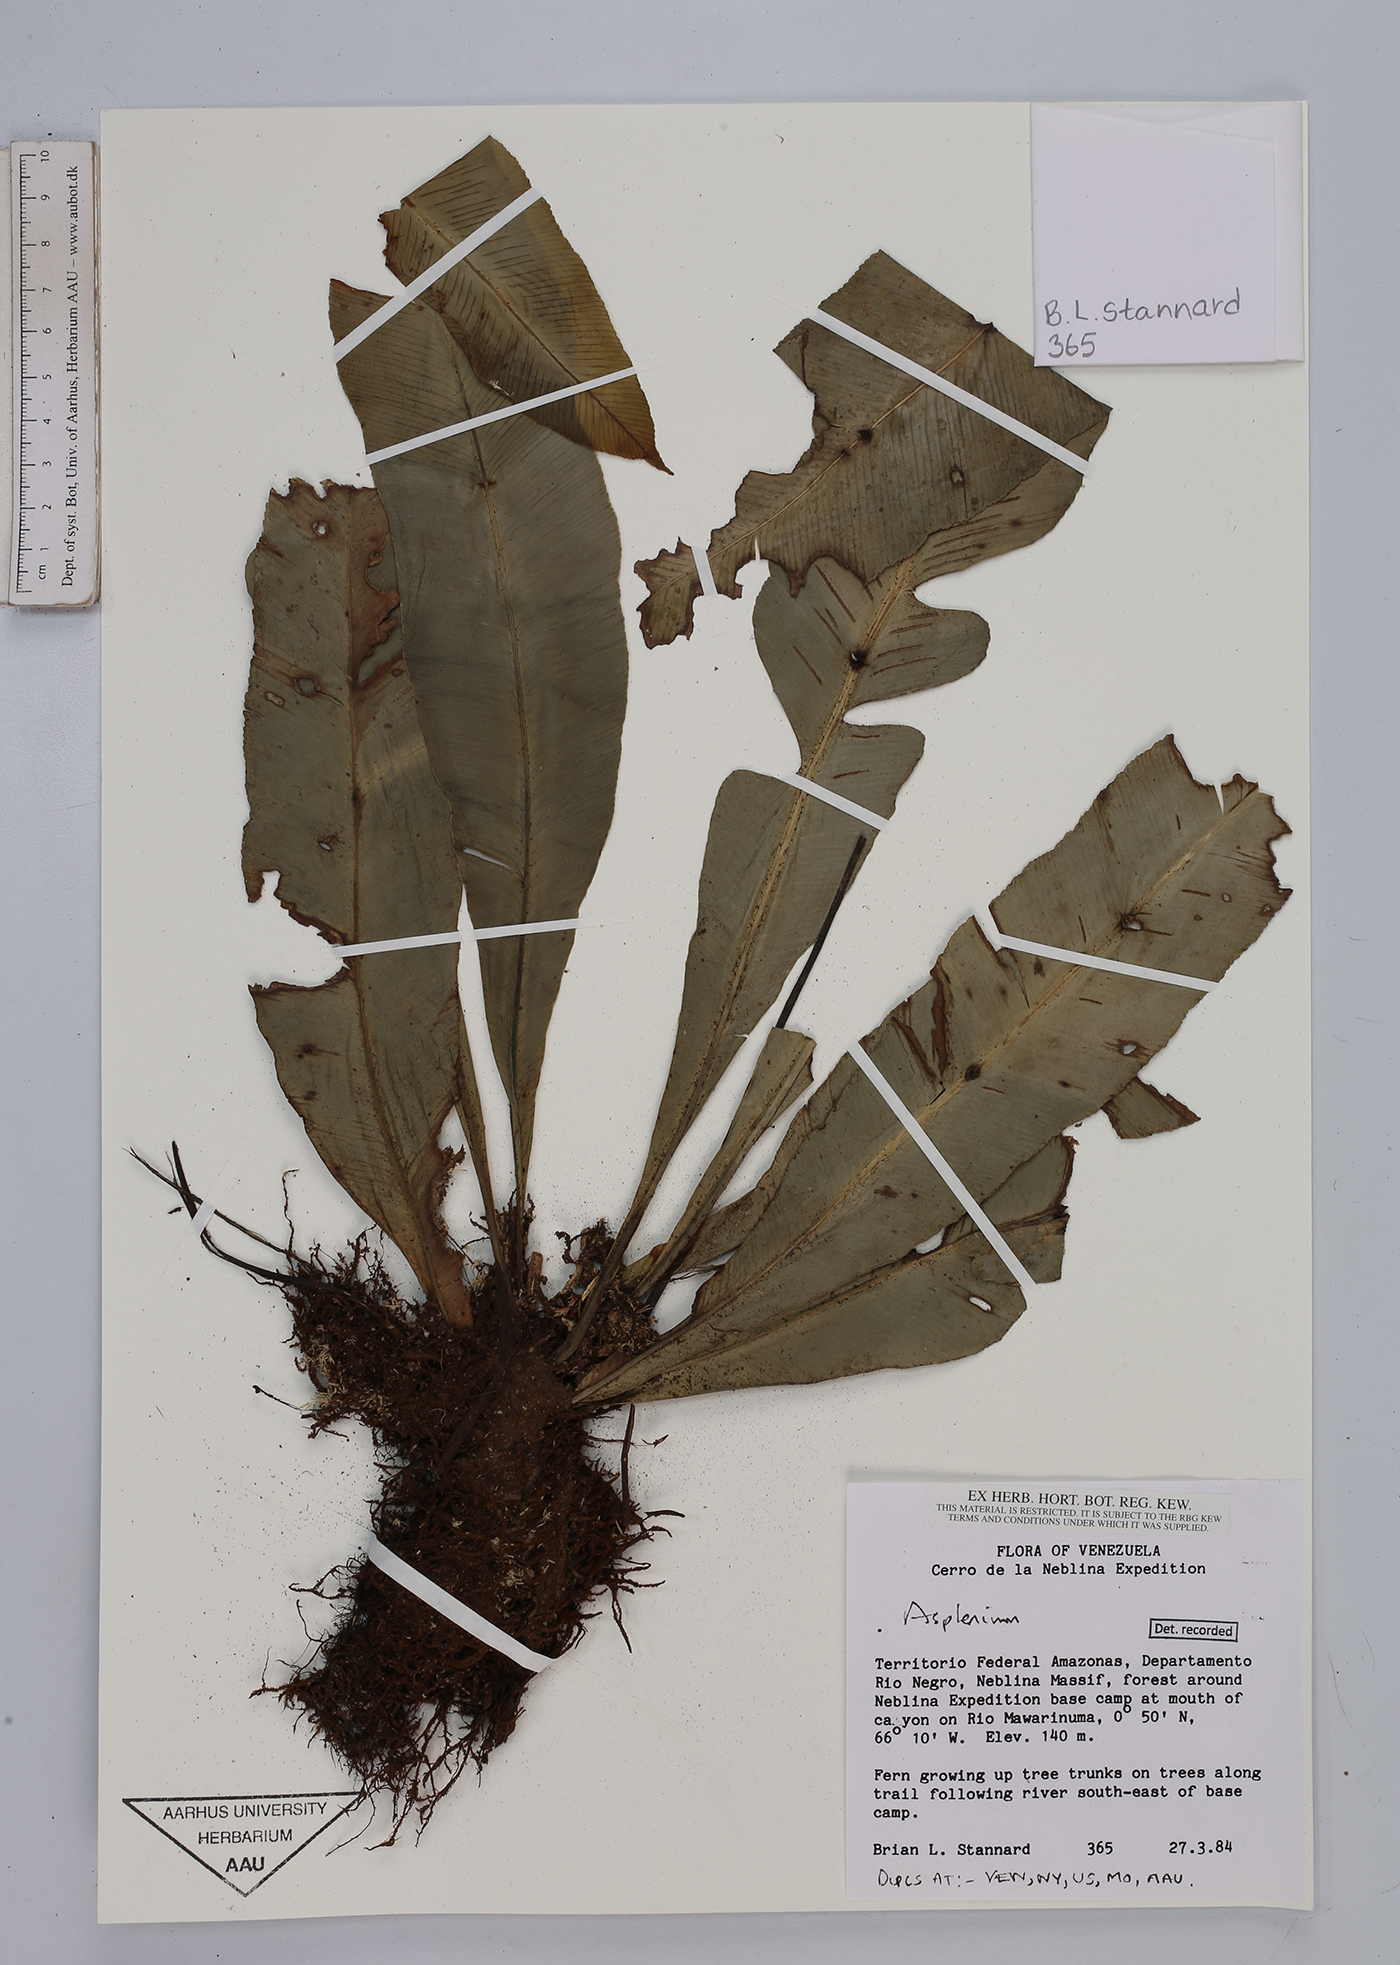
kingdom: Plantae
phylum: Tracheophyta
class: Polypodiopsida
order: Polypodiales
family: Aspleniaceae
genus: Asplenium
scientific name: Asplenium
